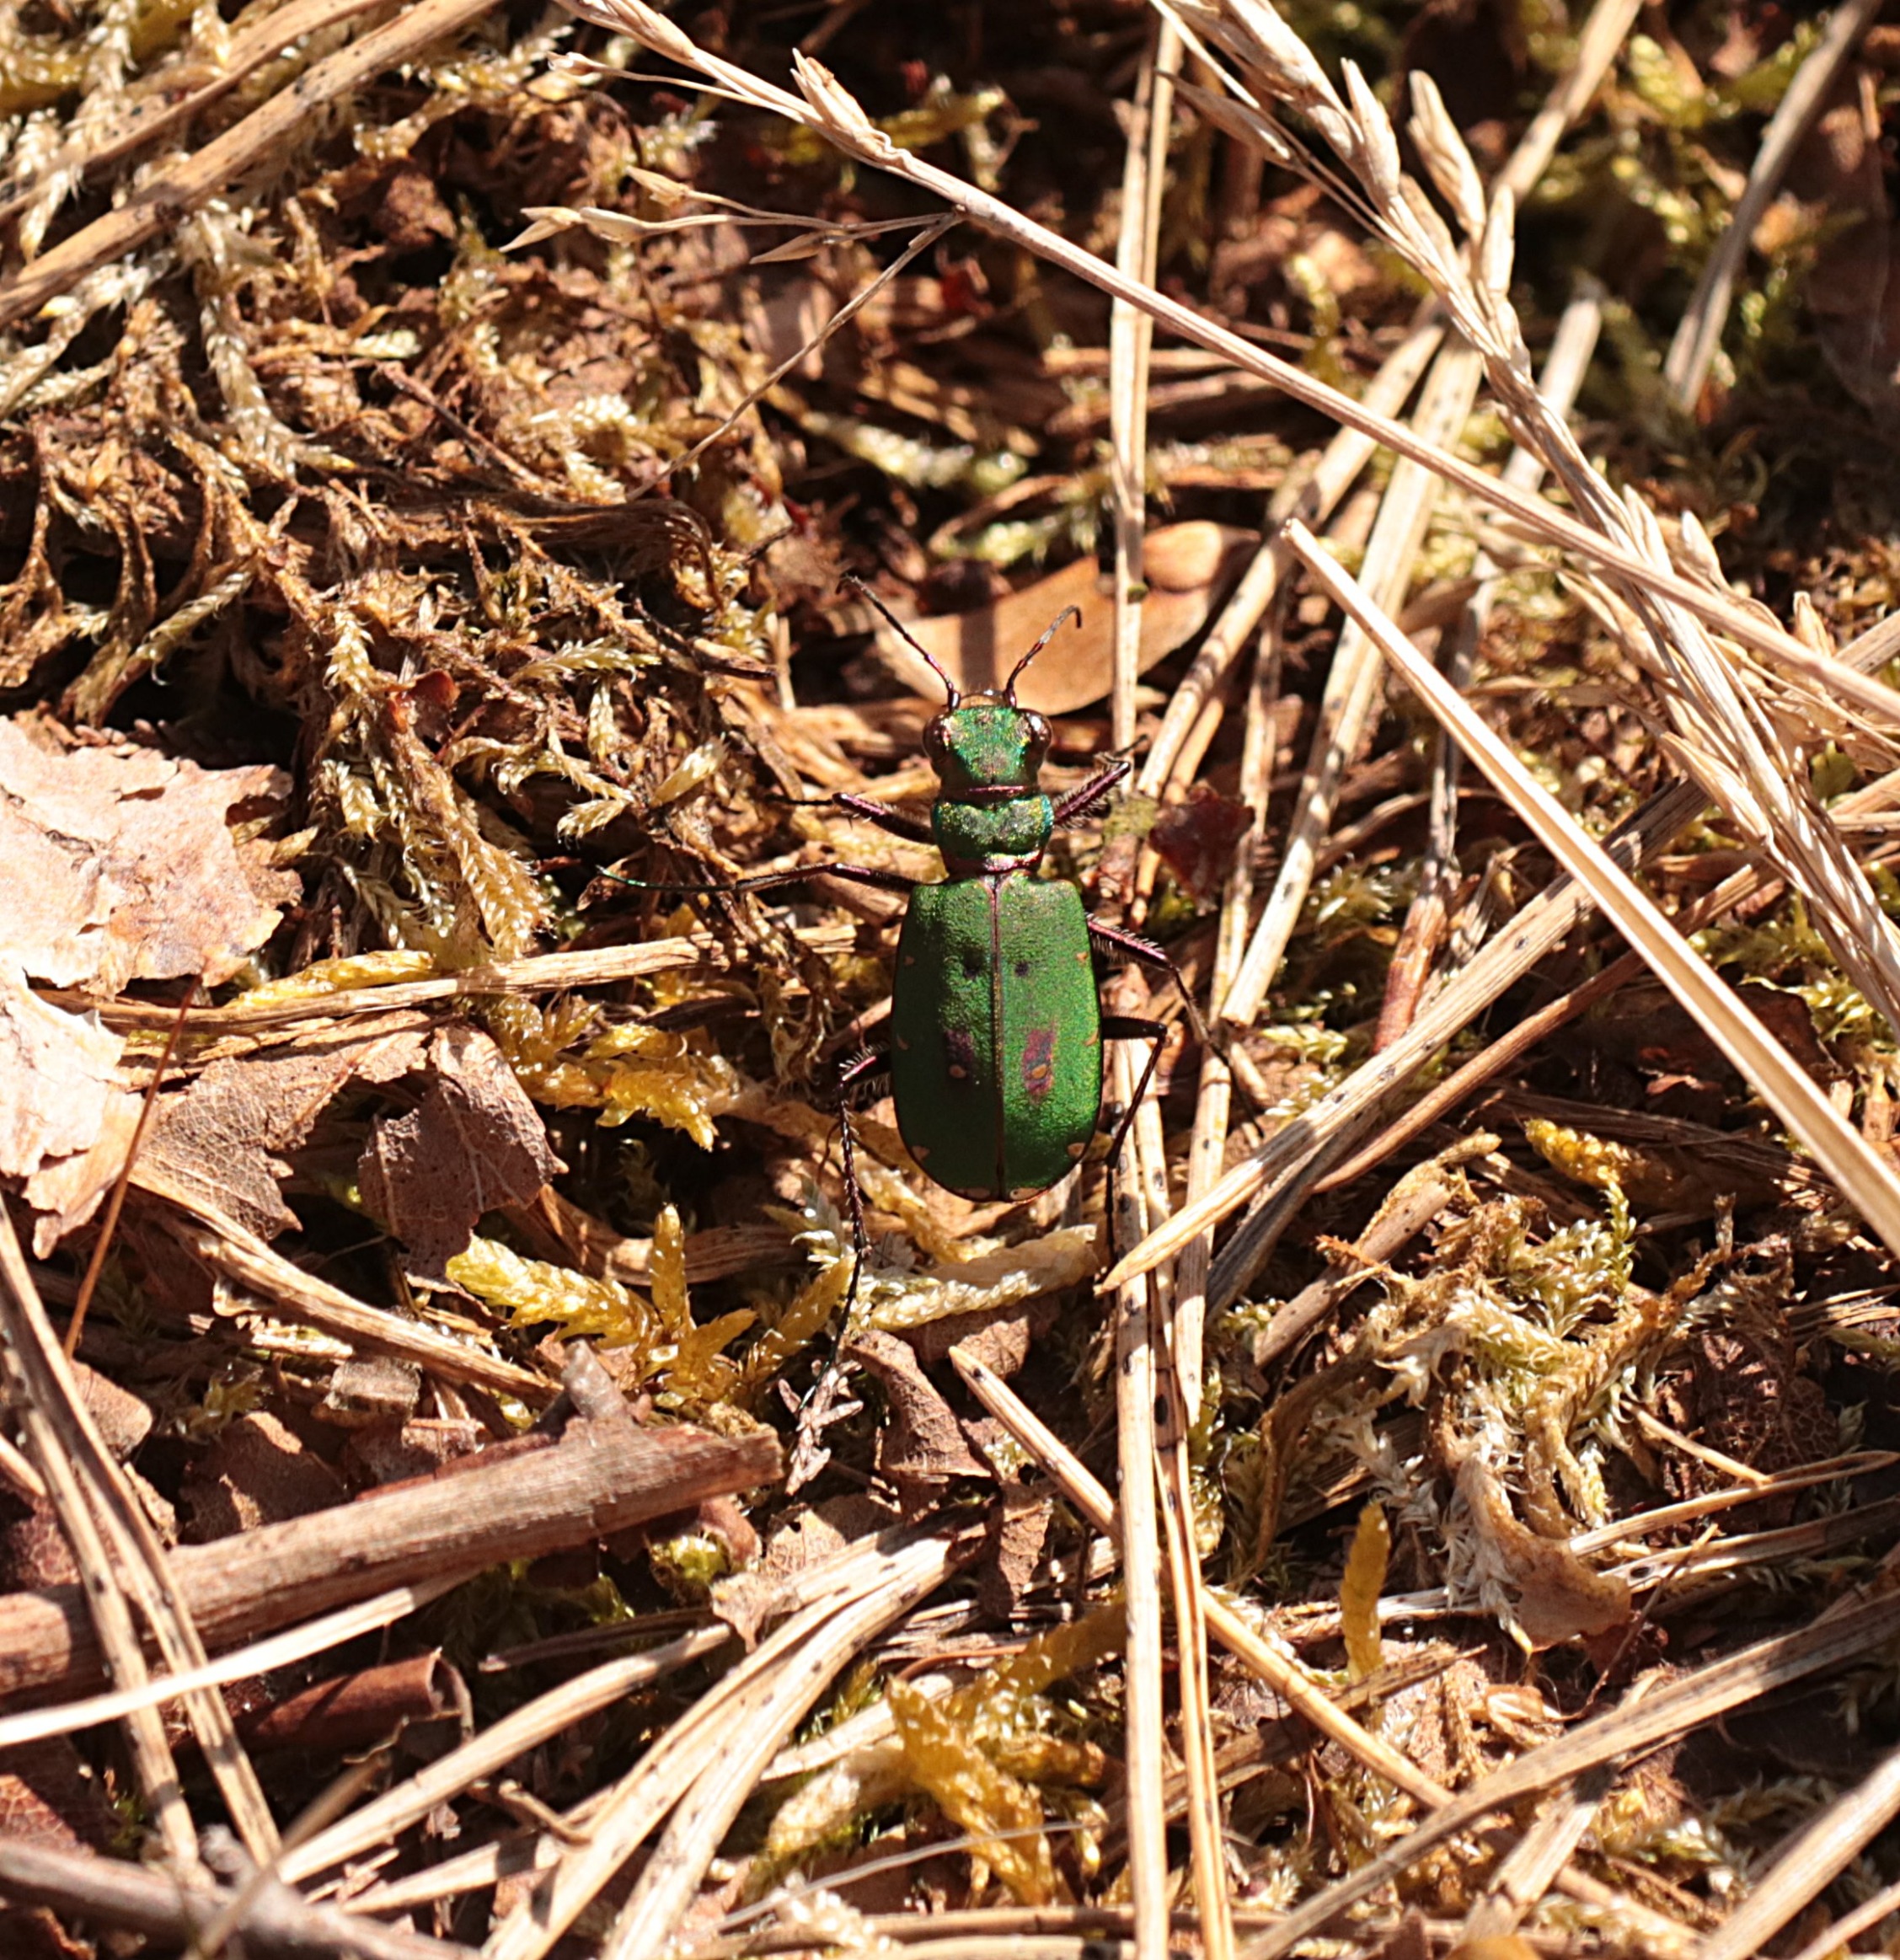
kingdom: Animalia
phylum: Arthropoda
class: Insecta
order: Coleoptera
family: Carabidae
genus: Cicindela
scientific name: Cicindela campestris
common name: Grøn sandspringer
